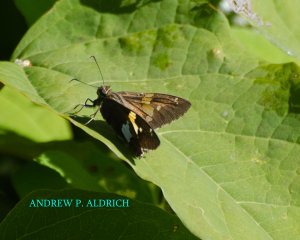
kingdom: Animalia
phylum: Arthropoda
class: Insecta
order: Lepidoptera
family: Hesperiidae
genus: Epargyreus
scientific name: Epargyreus clarus
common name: Silver-spotted Skipper
